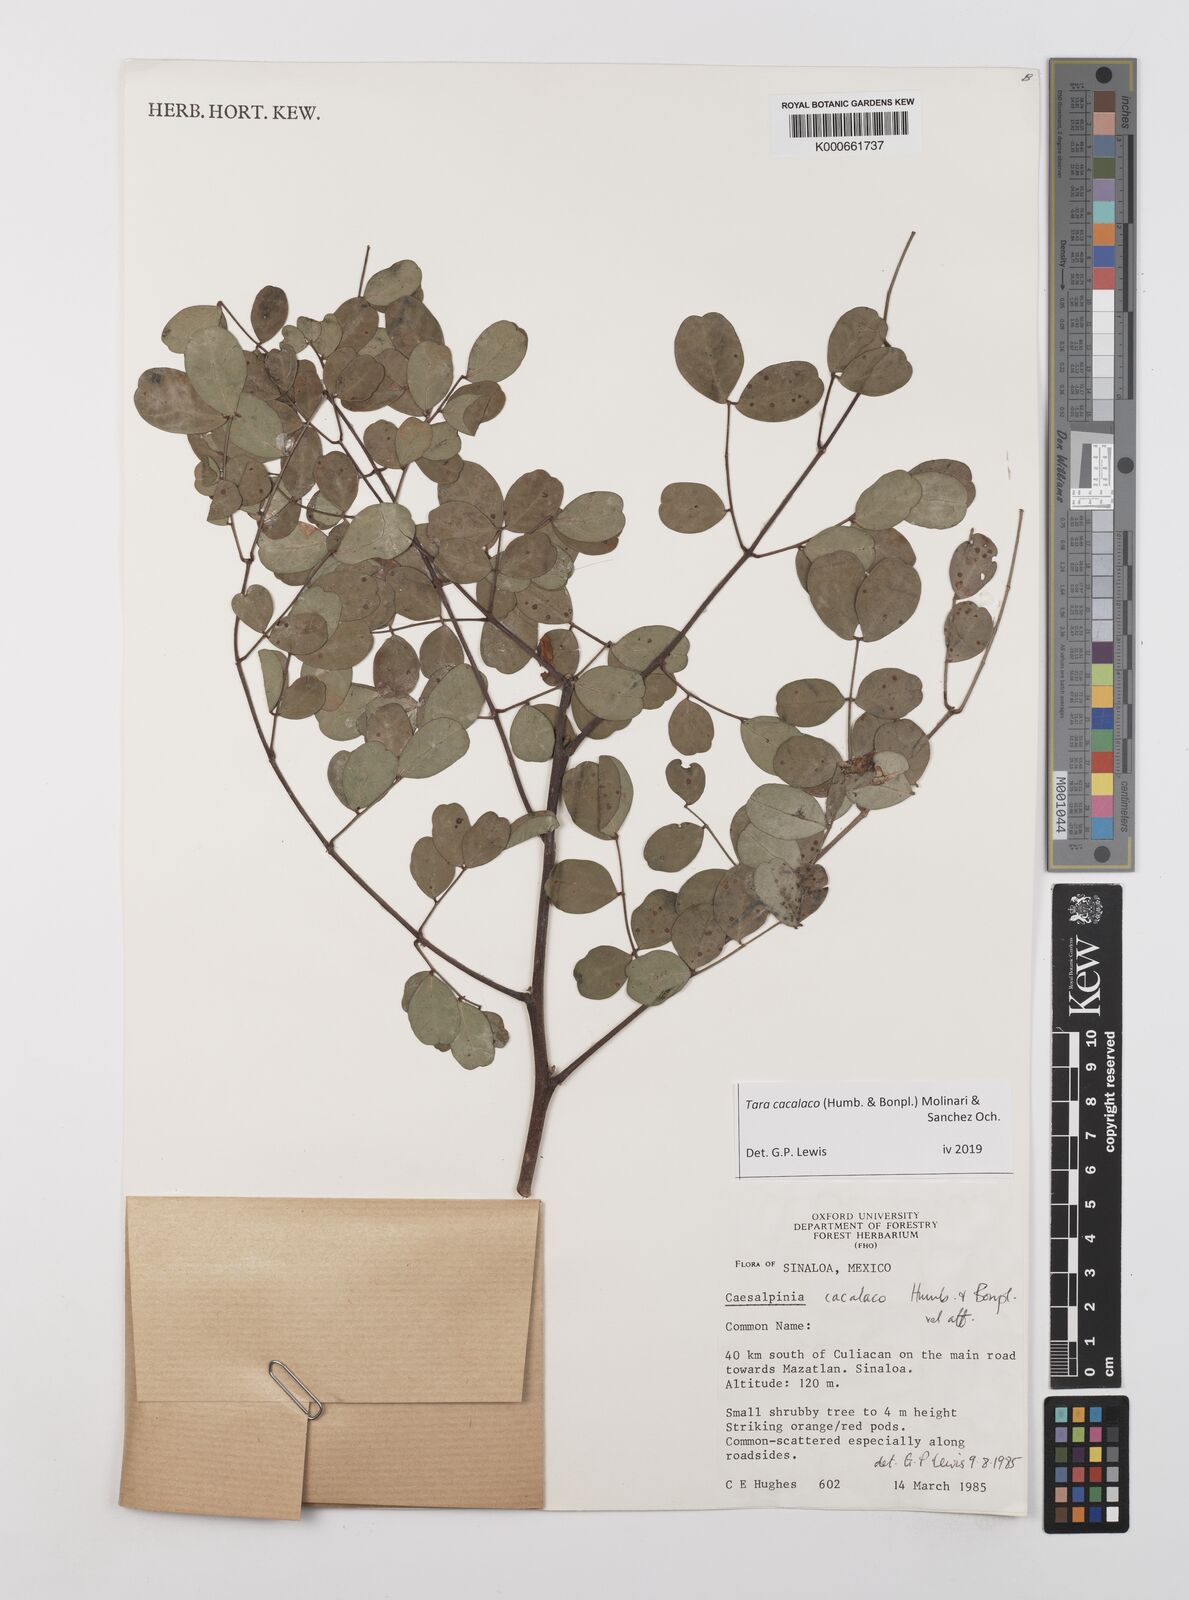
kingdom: Plantae
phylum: Tracheophyta
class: Magnoliopsida
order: Fabales
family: Fabaceae
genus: Tara
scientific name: Tara cacalaco
